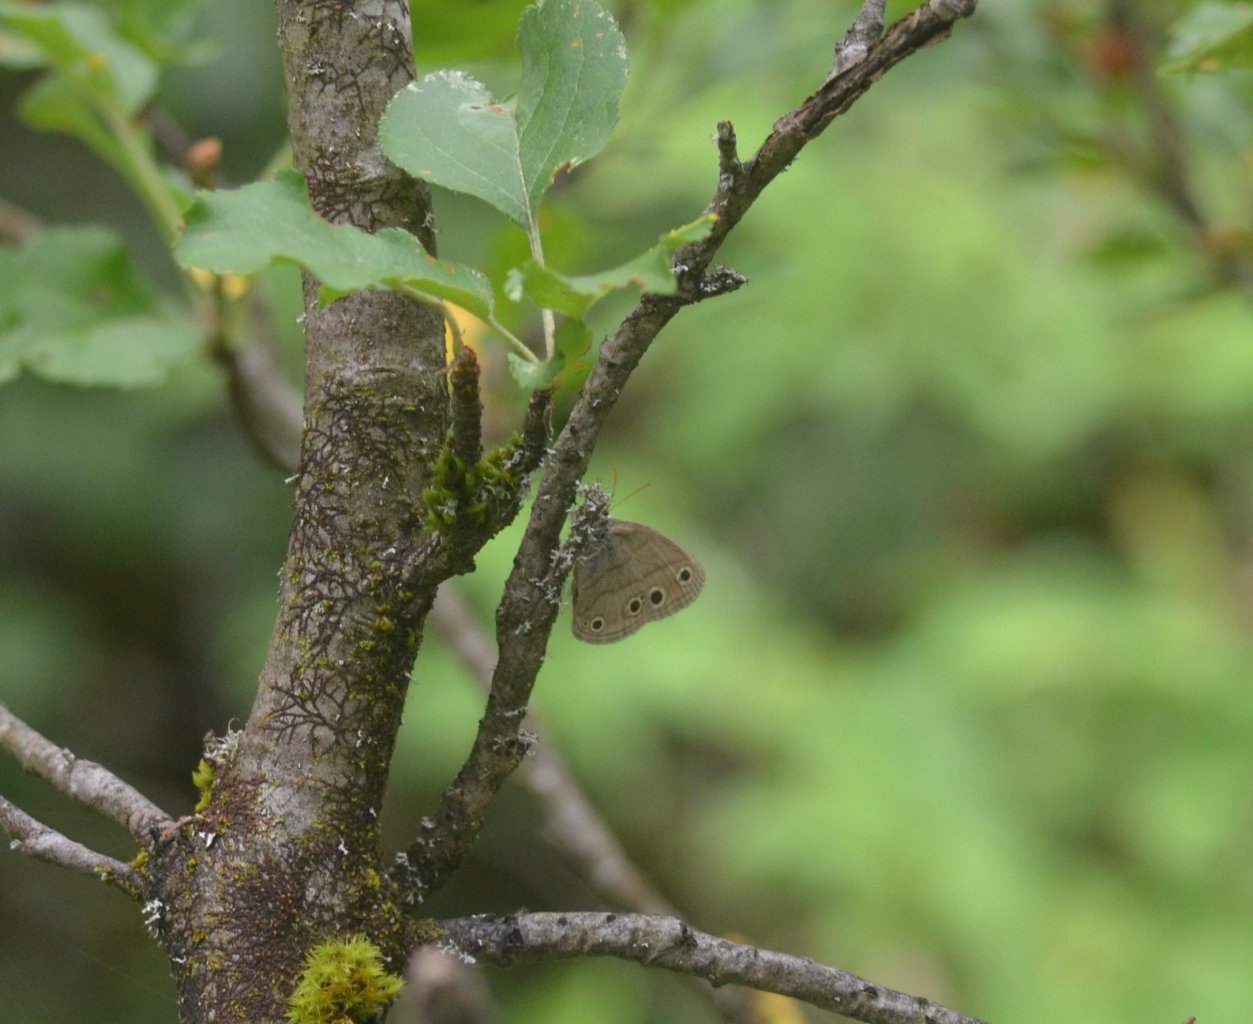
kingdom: Animalia
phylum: Arthropoda
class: Insecta
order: Lepidoptera
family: Nymphalidae
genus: Euptychia
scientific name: Euptychia cymela
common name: Little Wood Satyr
